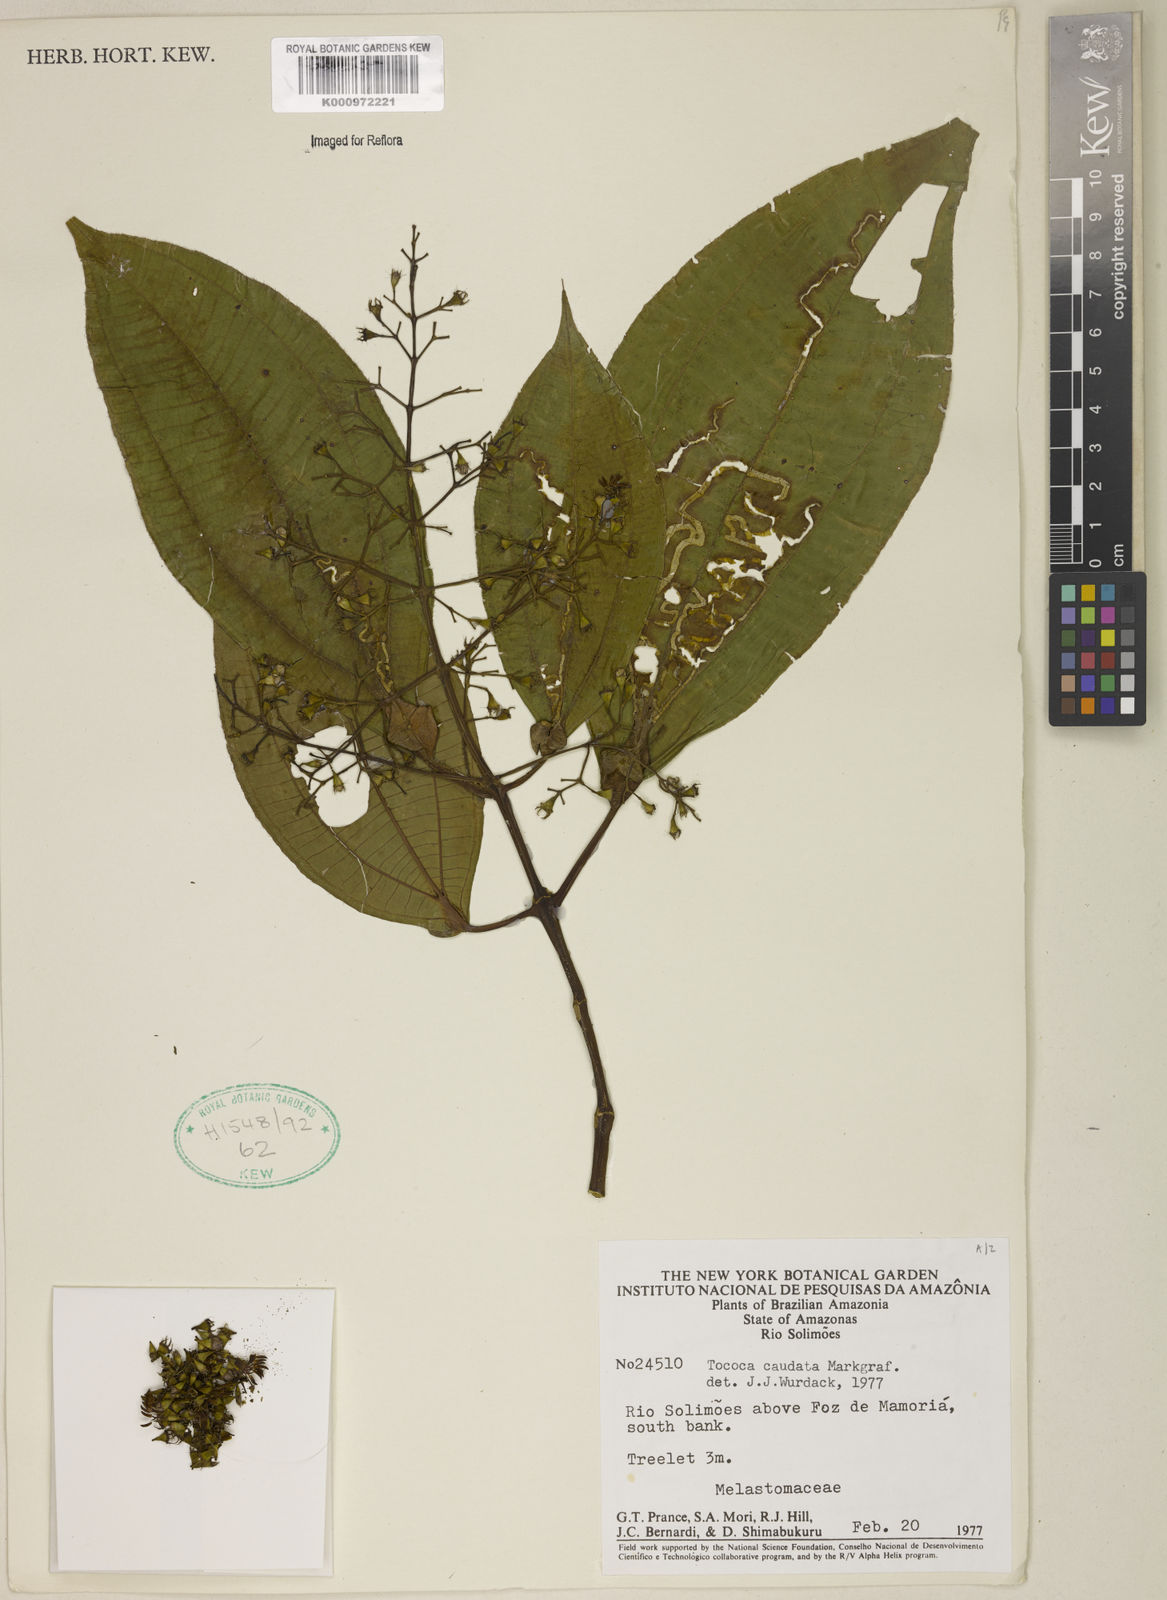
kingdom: Plantae
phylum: Tracheophyta
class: Magnoliopsida
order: Myrtales
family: Melastomataceae
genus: Miconia
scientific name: Miconia tococaudata
